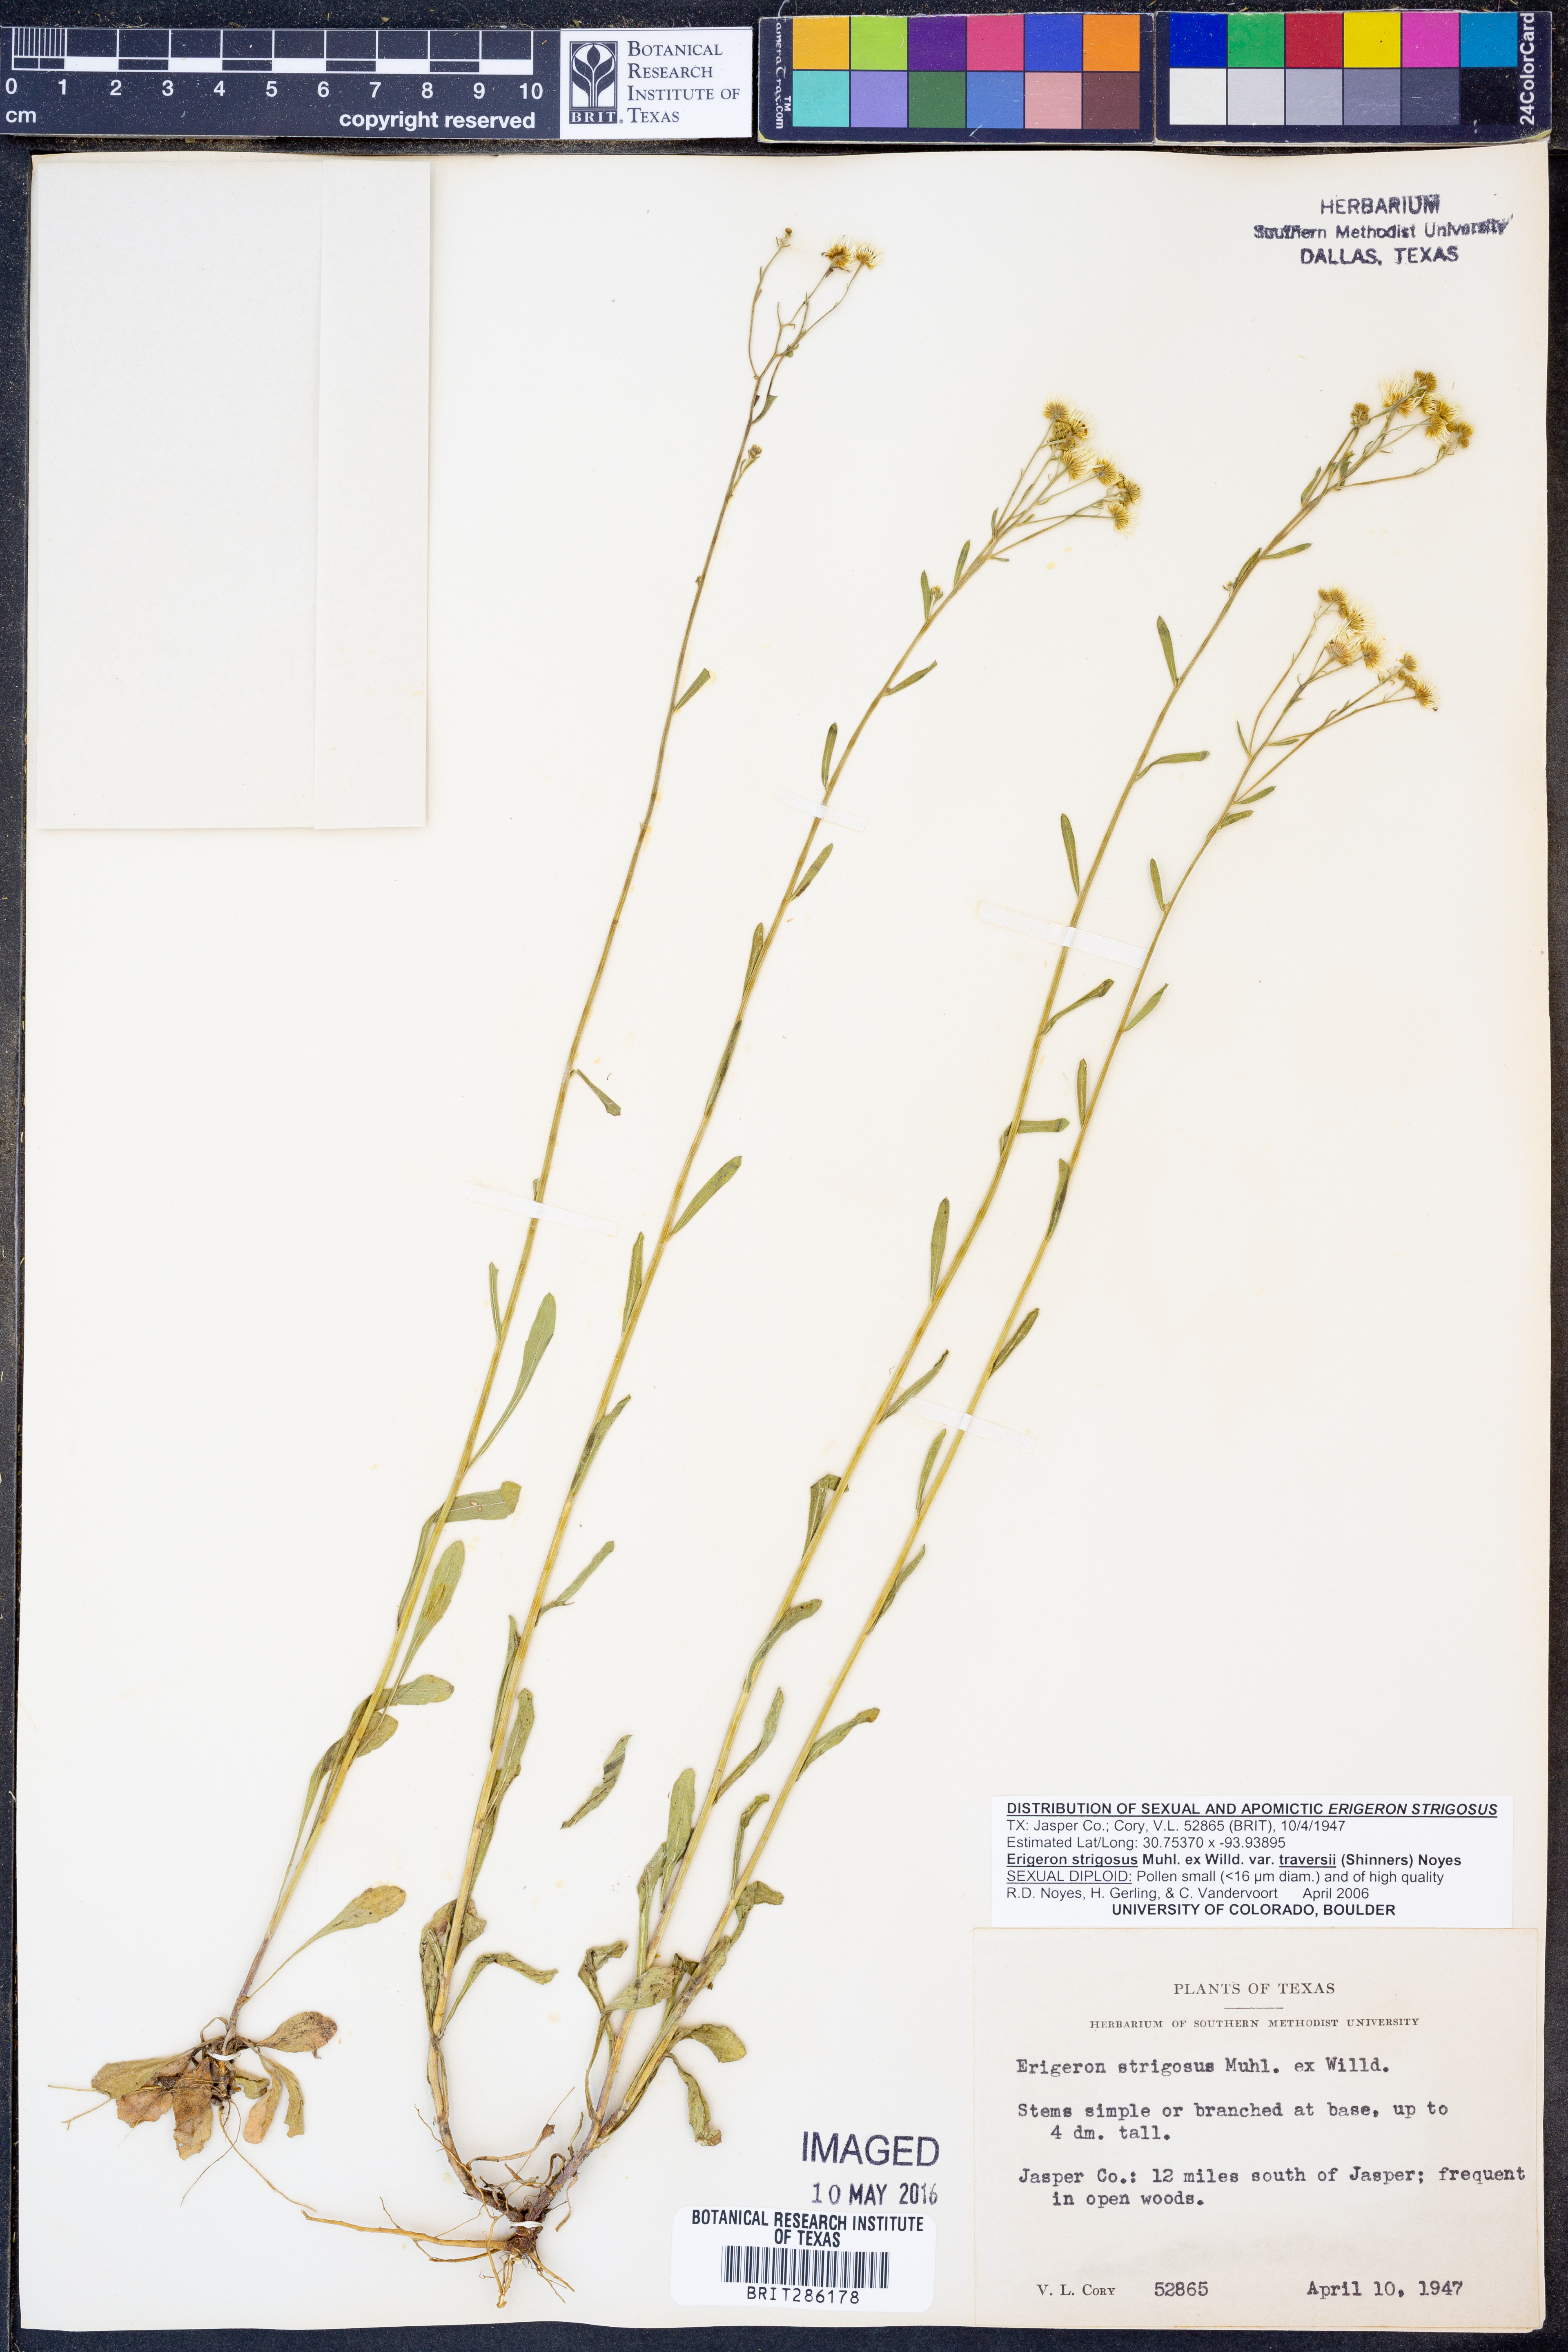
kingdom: Plantae
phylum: Tracheophyta
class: Magnoliopsida
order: Asterales
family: Asteraceae
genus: Erigeron
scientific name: Erigeron annuus
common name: Tall fleabane
